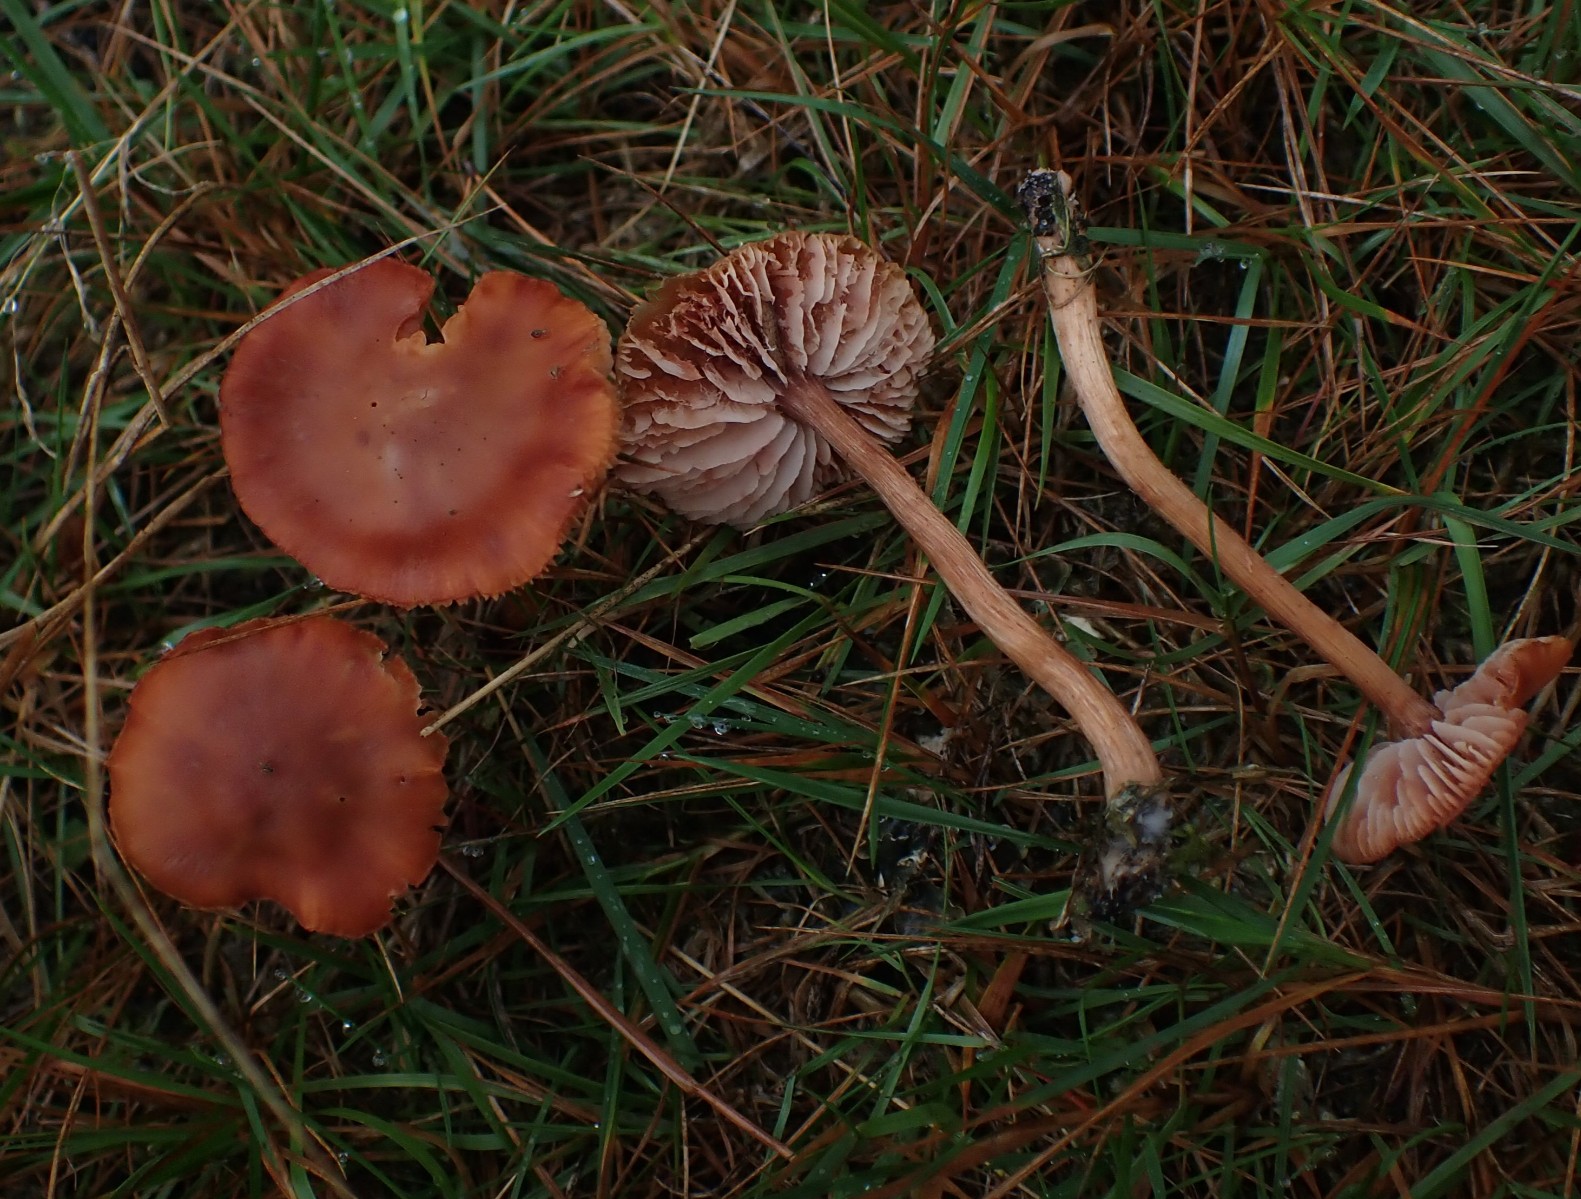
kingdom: Fungi
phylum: Basidiomycota
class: Agaricomycetes
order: Agaricales
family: Hydnangiaceae
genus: Laccaria
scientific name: Laccaria proxima
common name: stor ametysthat
